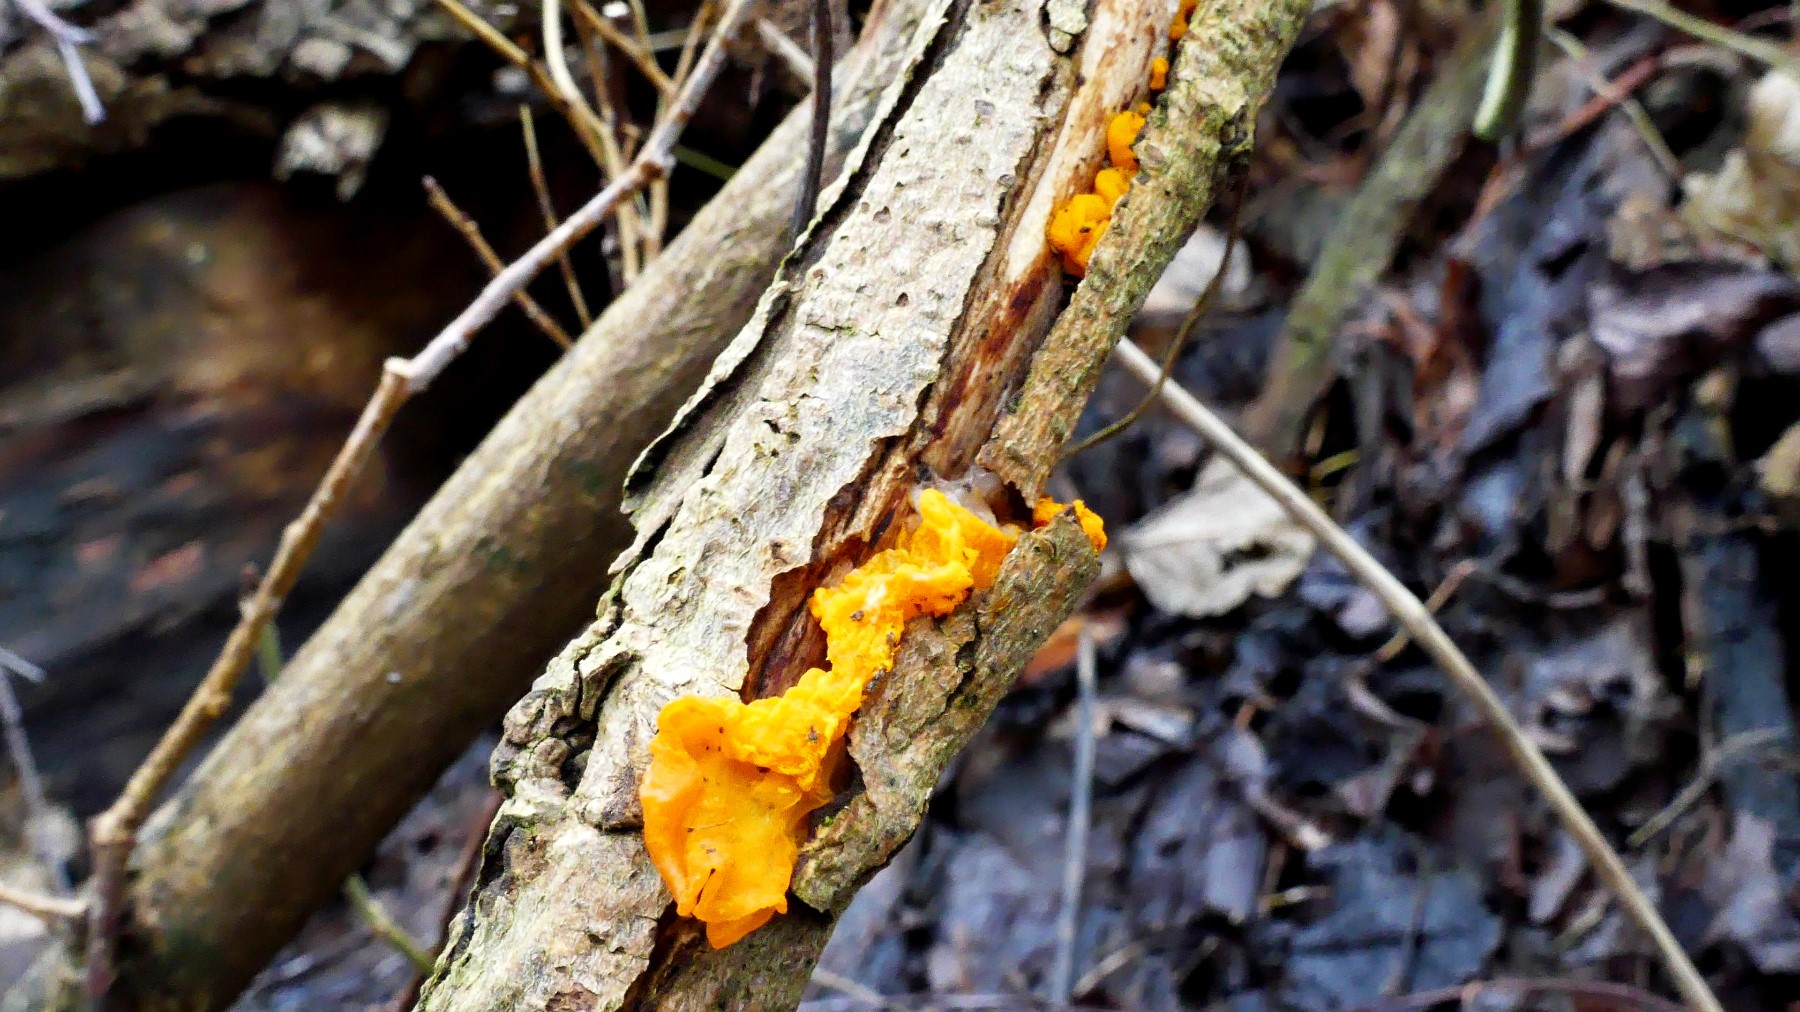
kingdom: Fungi
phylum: Basidiomycota
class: Tremellomycetes
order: Tremellales
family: Tremellaceae
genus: Tremella
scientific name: Tremella mesenterica
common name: gul bævresvamp
